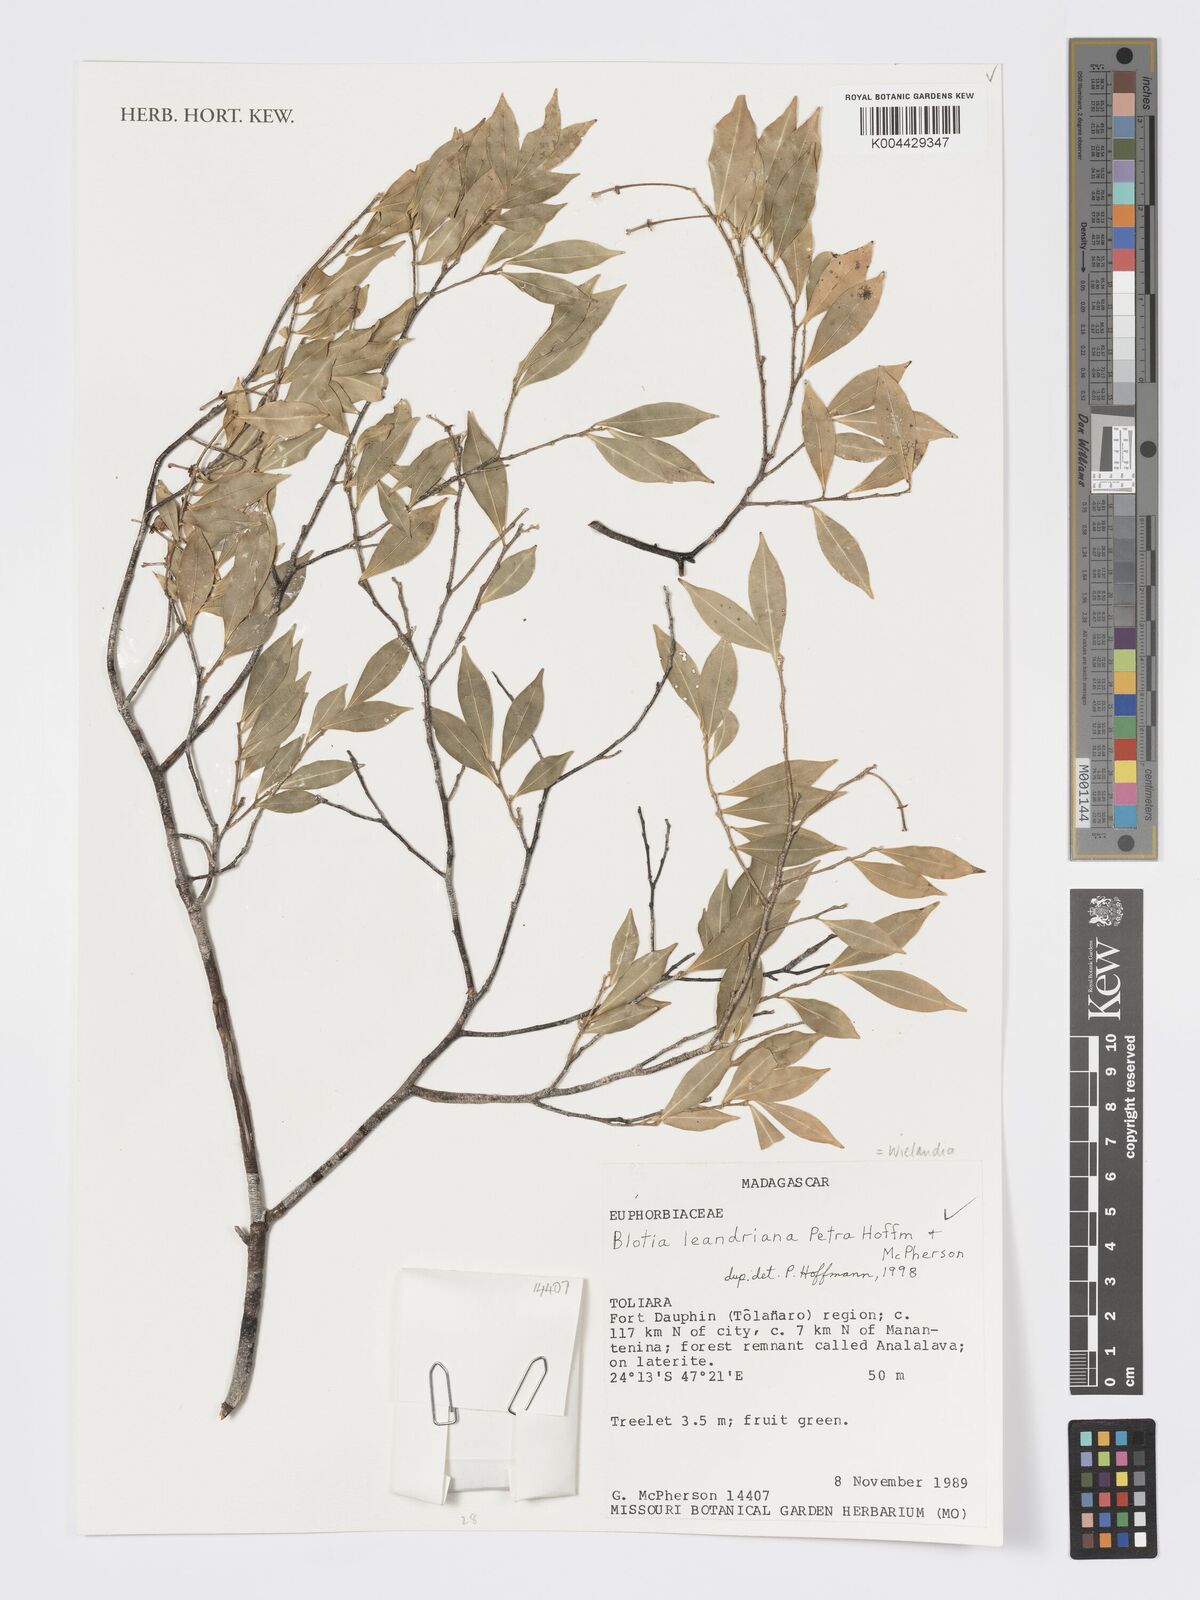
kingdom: Plantae
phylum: Tracheophyta
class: Magnoliopsida
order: Malpighiales
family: Phyllanthaceae
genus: Wielandia
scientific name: Wielandia leandriana
